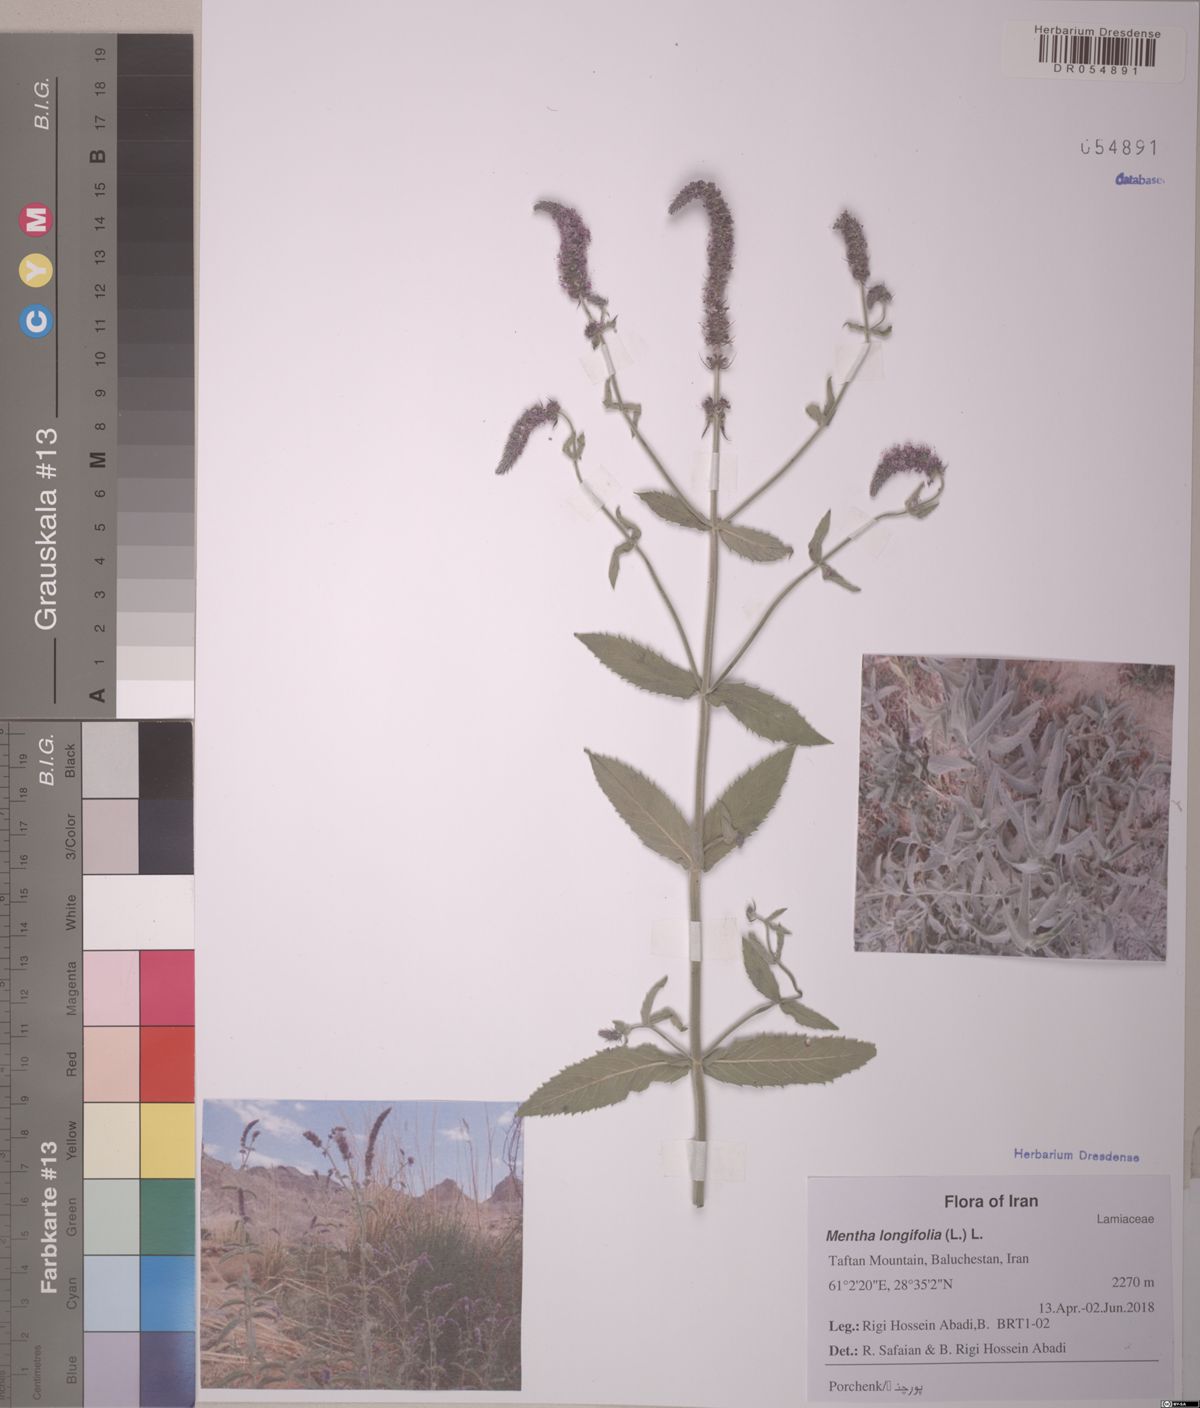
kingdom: Plantae
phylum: Tracheophyta
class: Magnoliopsida
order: Lamiales
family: Lamiaceae
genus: Mentha
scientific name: Mentha longifolia
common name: Horse mint
